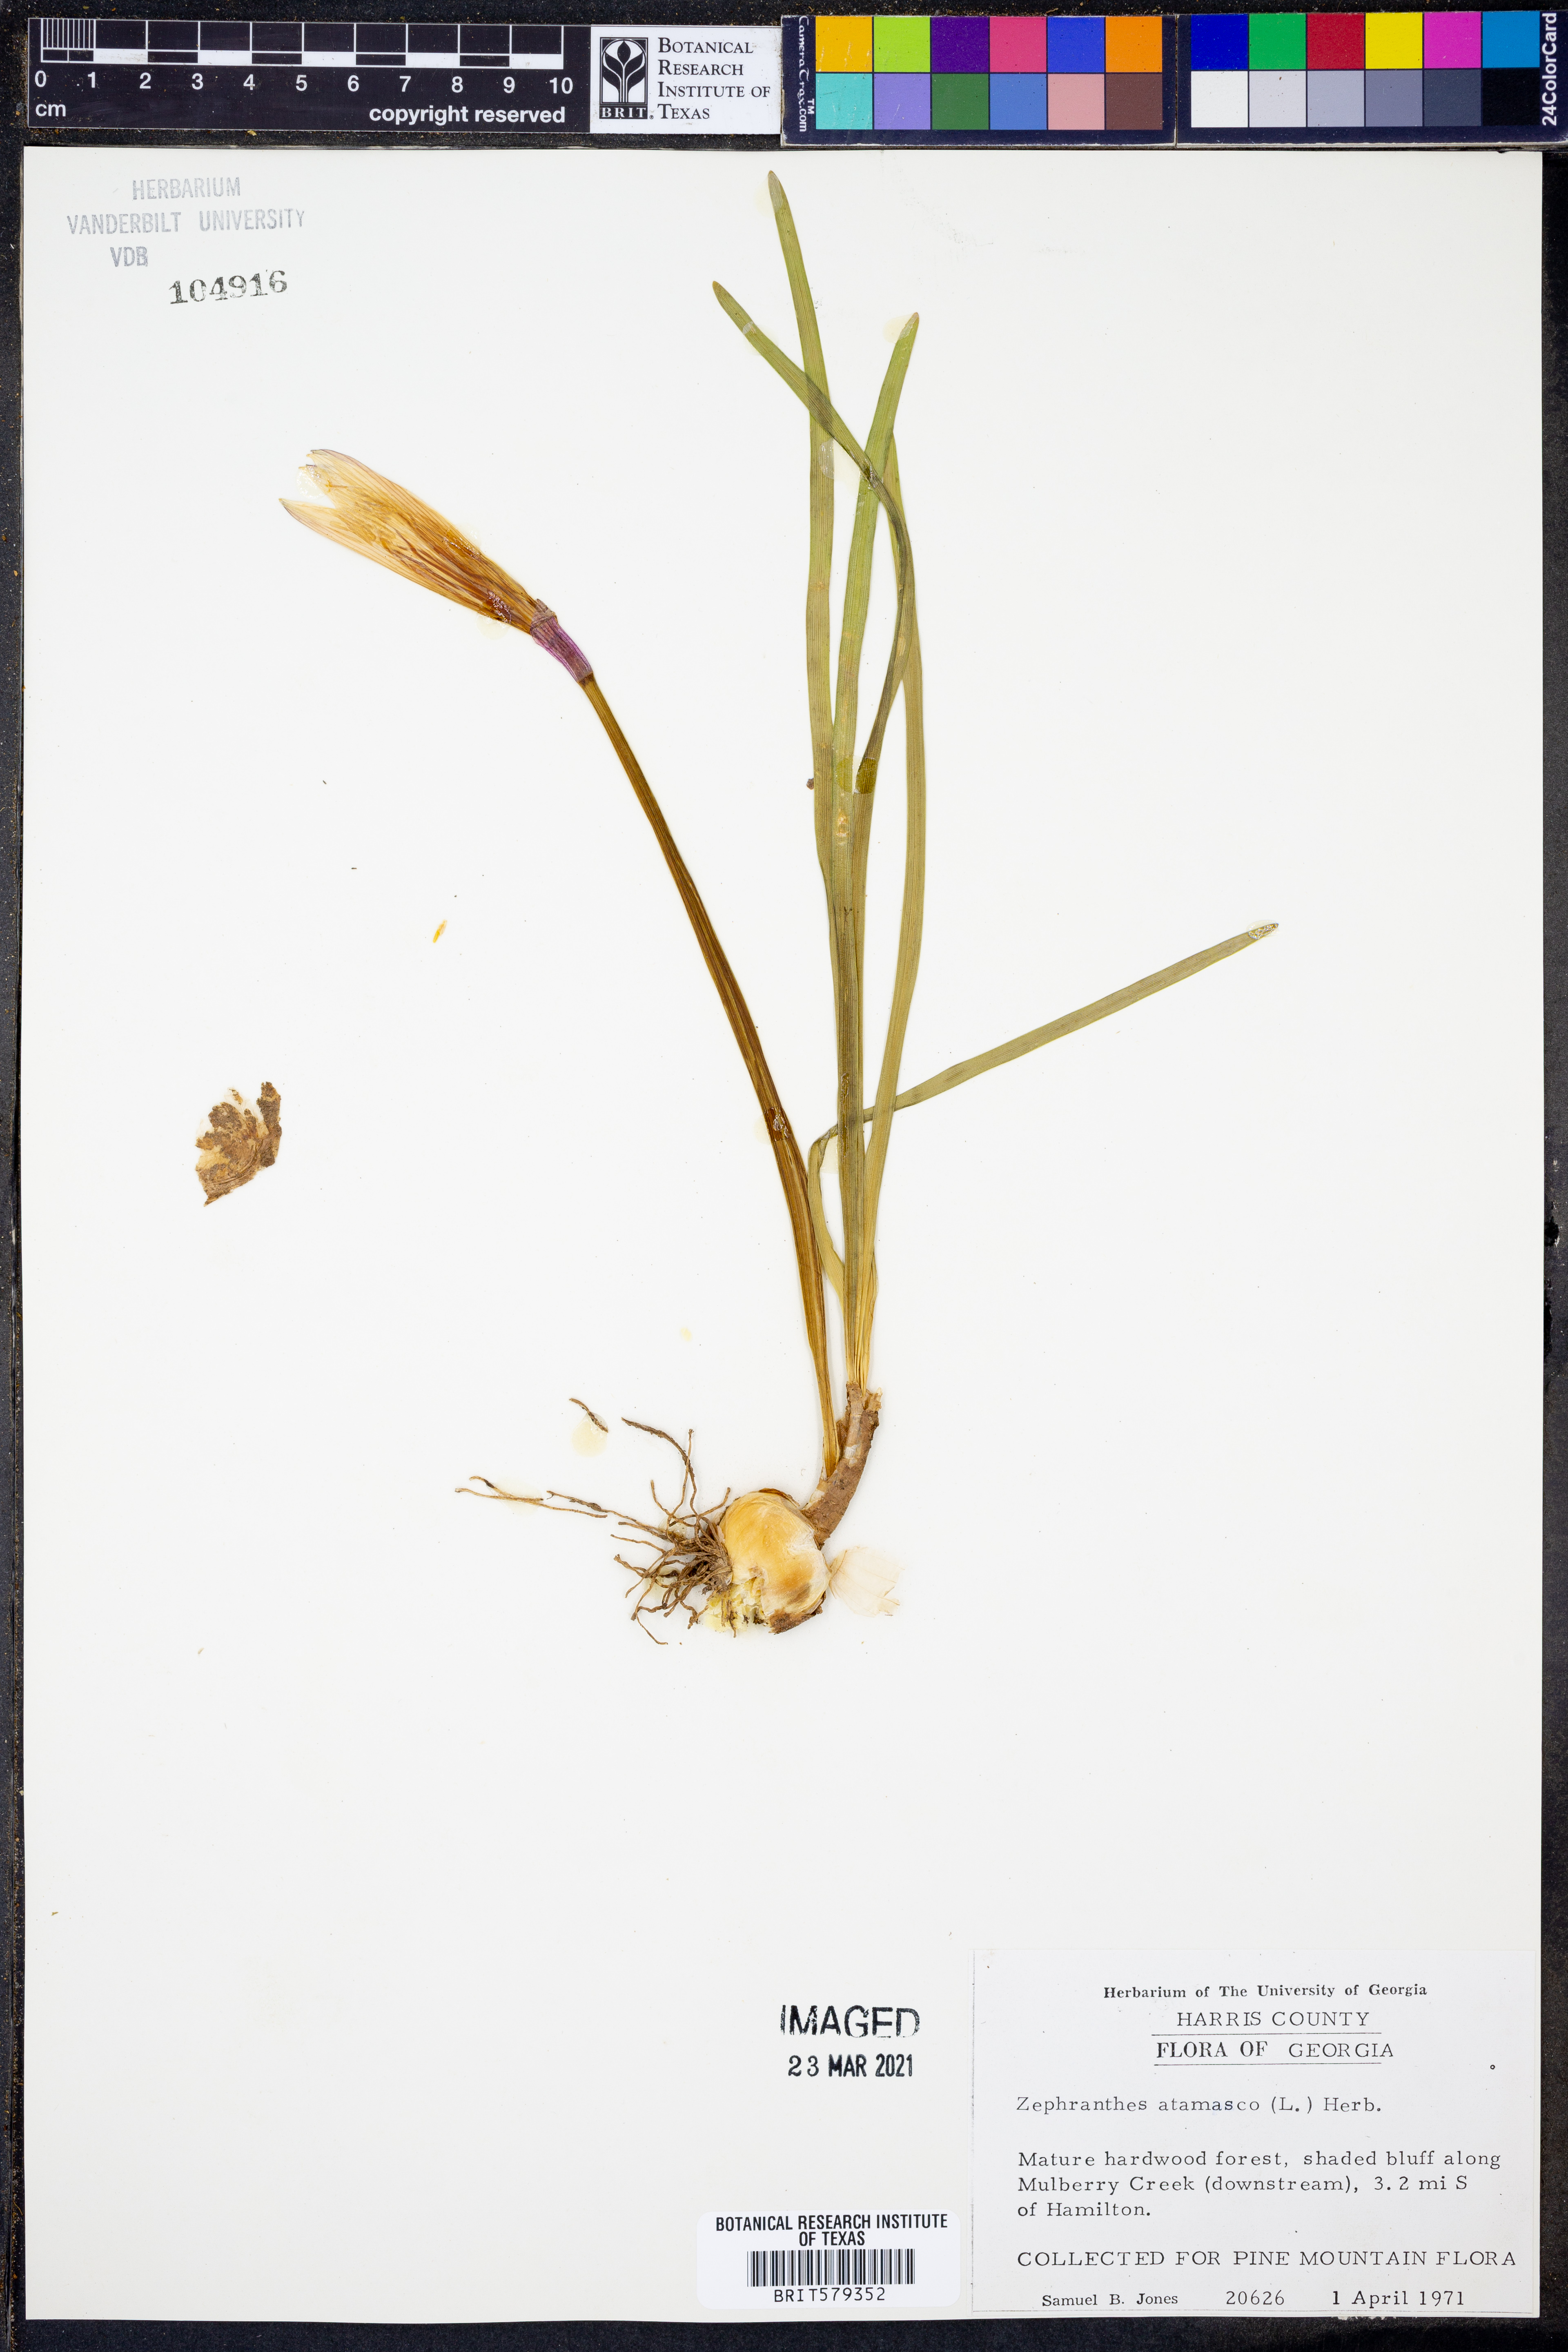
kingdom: Plantae
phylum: Tracheophyta
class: Liliopsida
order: Asparagales
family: Amaryllidaceae
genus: Zephyranthes
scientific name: Zephyranthes atamasco
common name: Atamasco lily
